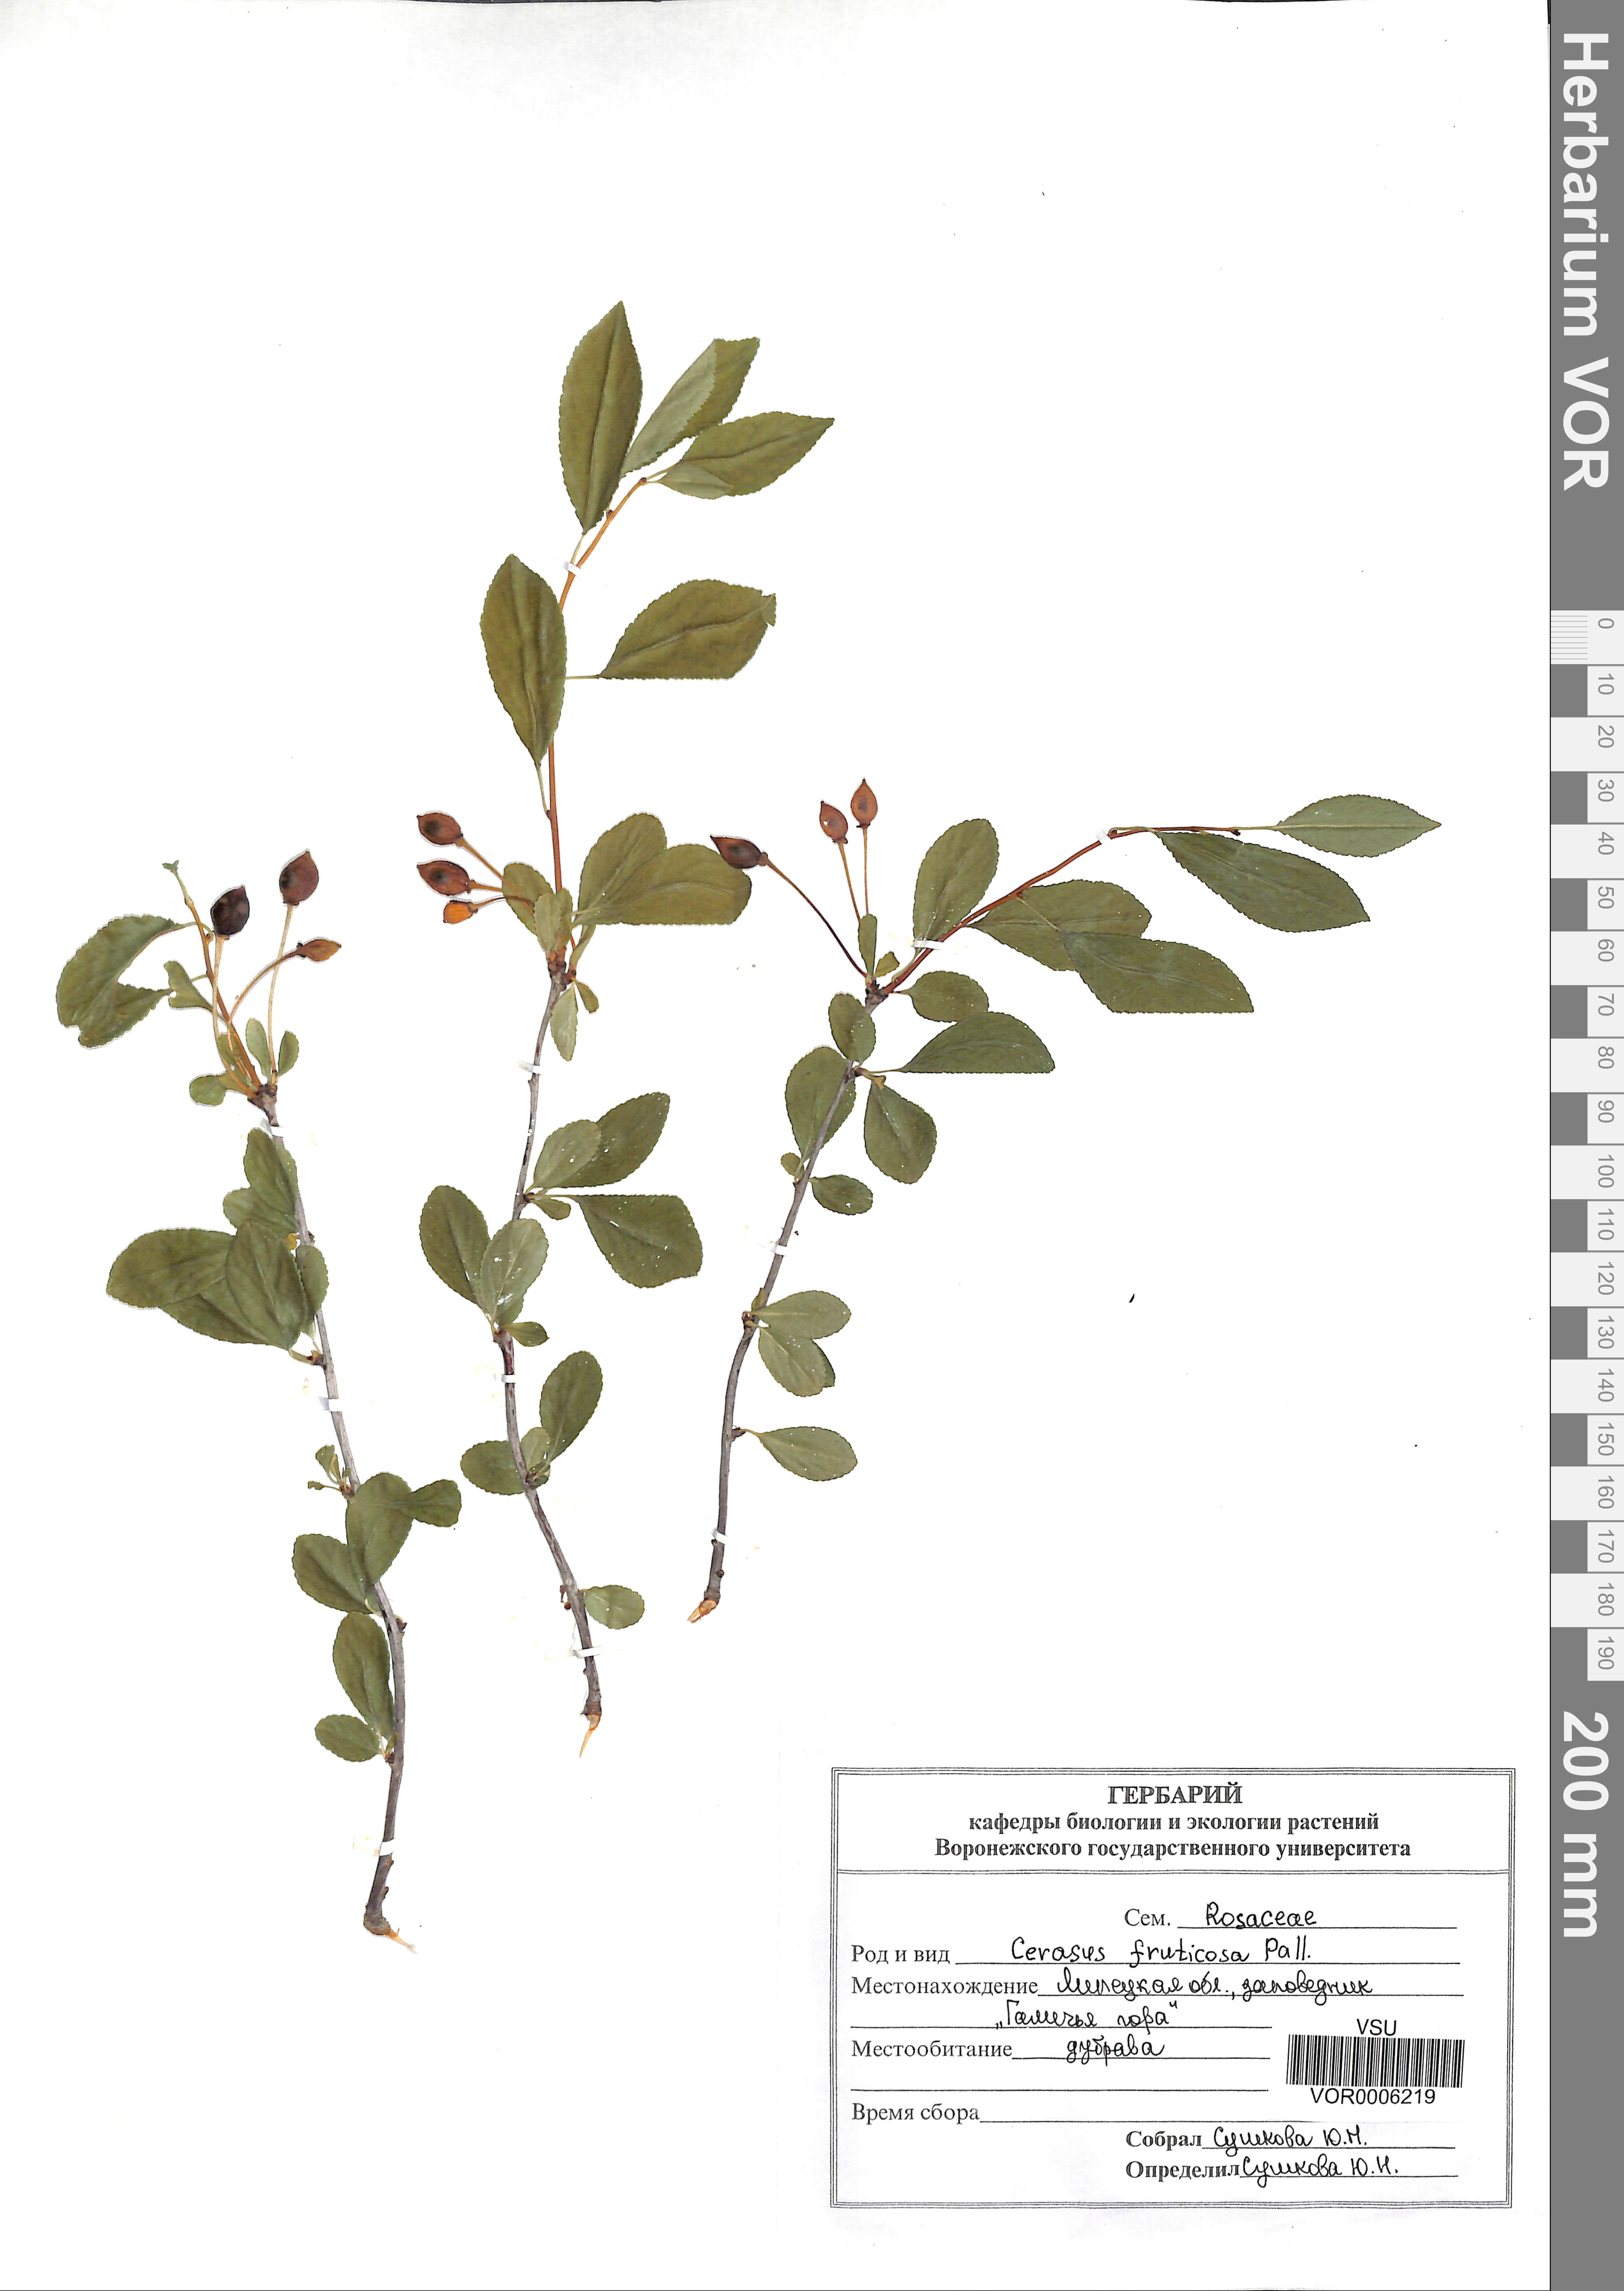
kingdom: Plantae
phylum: Tracheophyta
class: Magnoliopsida
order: Rosales
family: Rosaceae
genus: Prunus
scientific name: Prunus fruticosa
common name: European dwarf cherry
